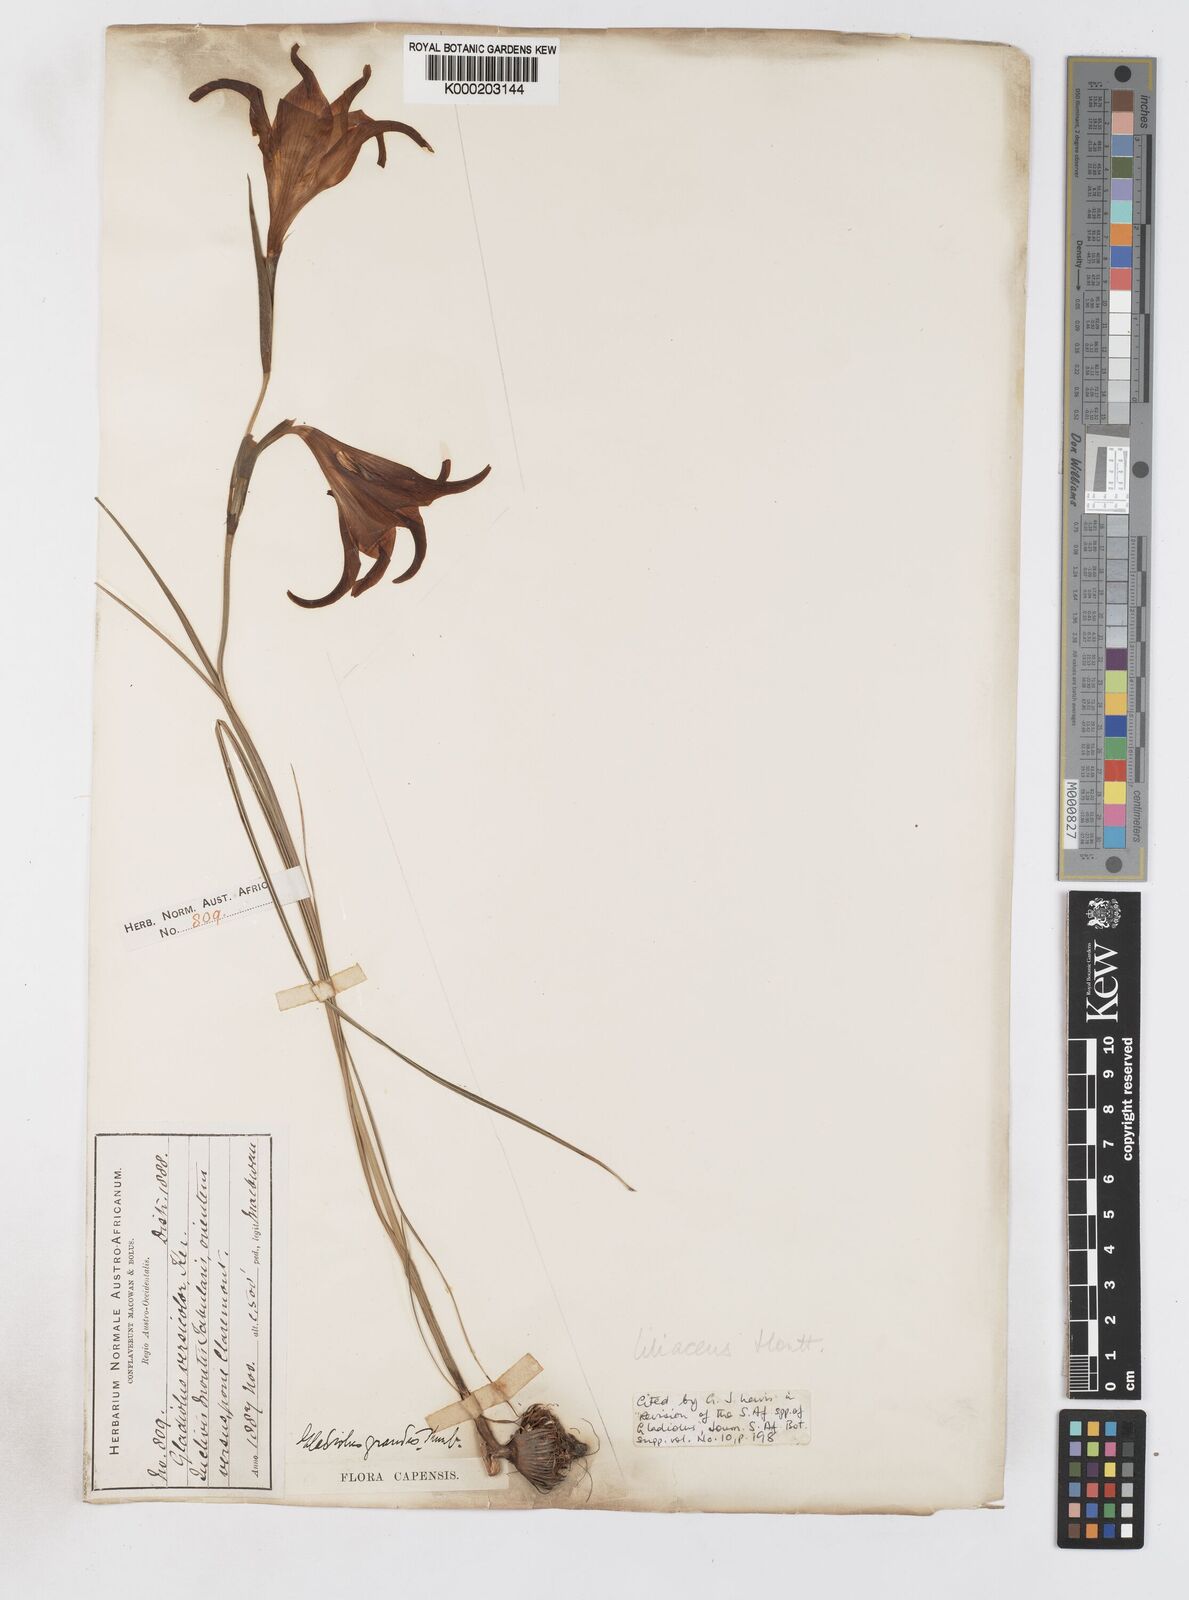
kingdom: Plantae
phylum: Tracheophyta
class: Liliopsida
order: Asparagales
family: Iridaceae
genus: Gladiolus
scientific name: Gladiolus liliaceus
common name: Large brown afrikaner
